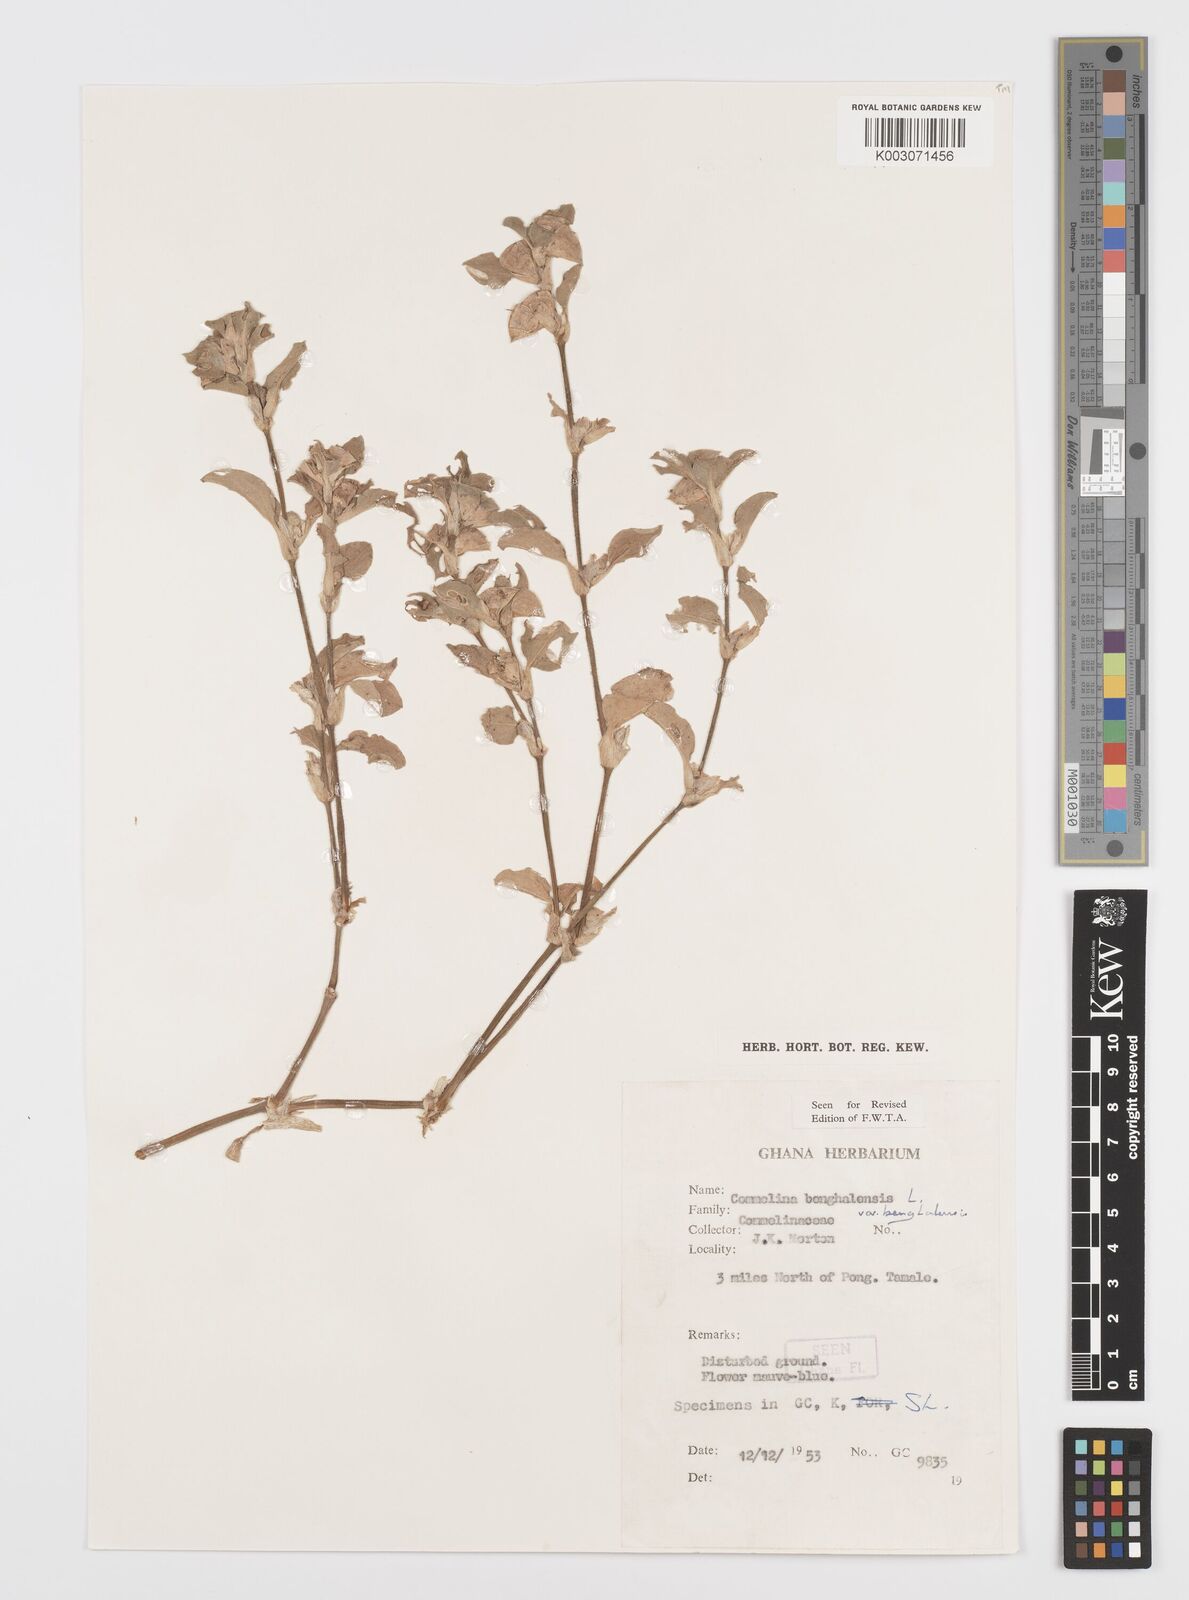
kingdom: Plantae
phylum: Tracheophyta
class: Liliopsida
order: Commelinales
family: Commelinaceae
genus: Commelina
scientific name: Commelina benghalensis
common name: Jio
